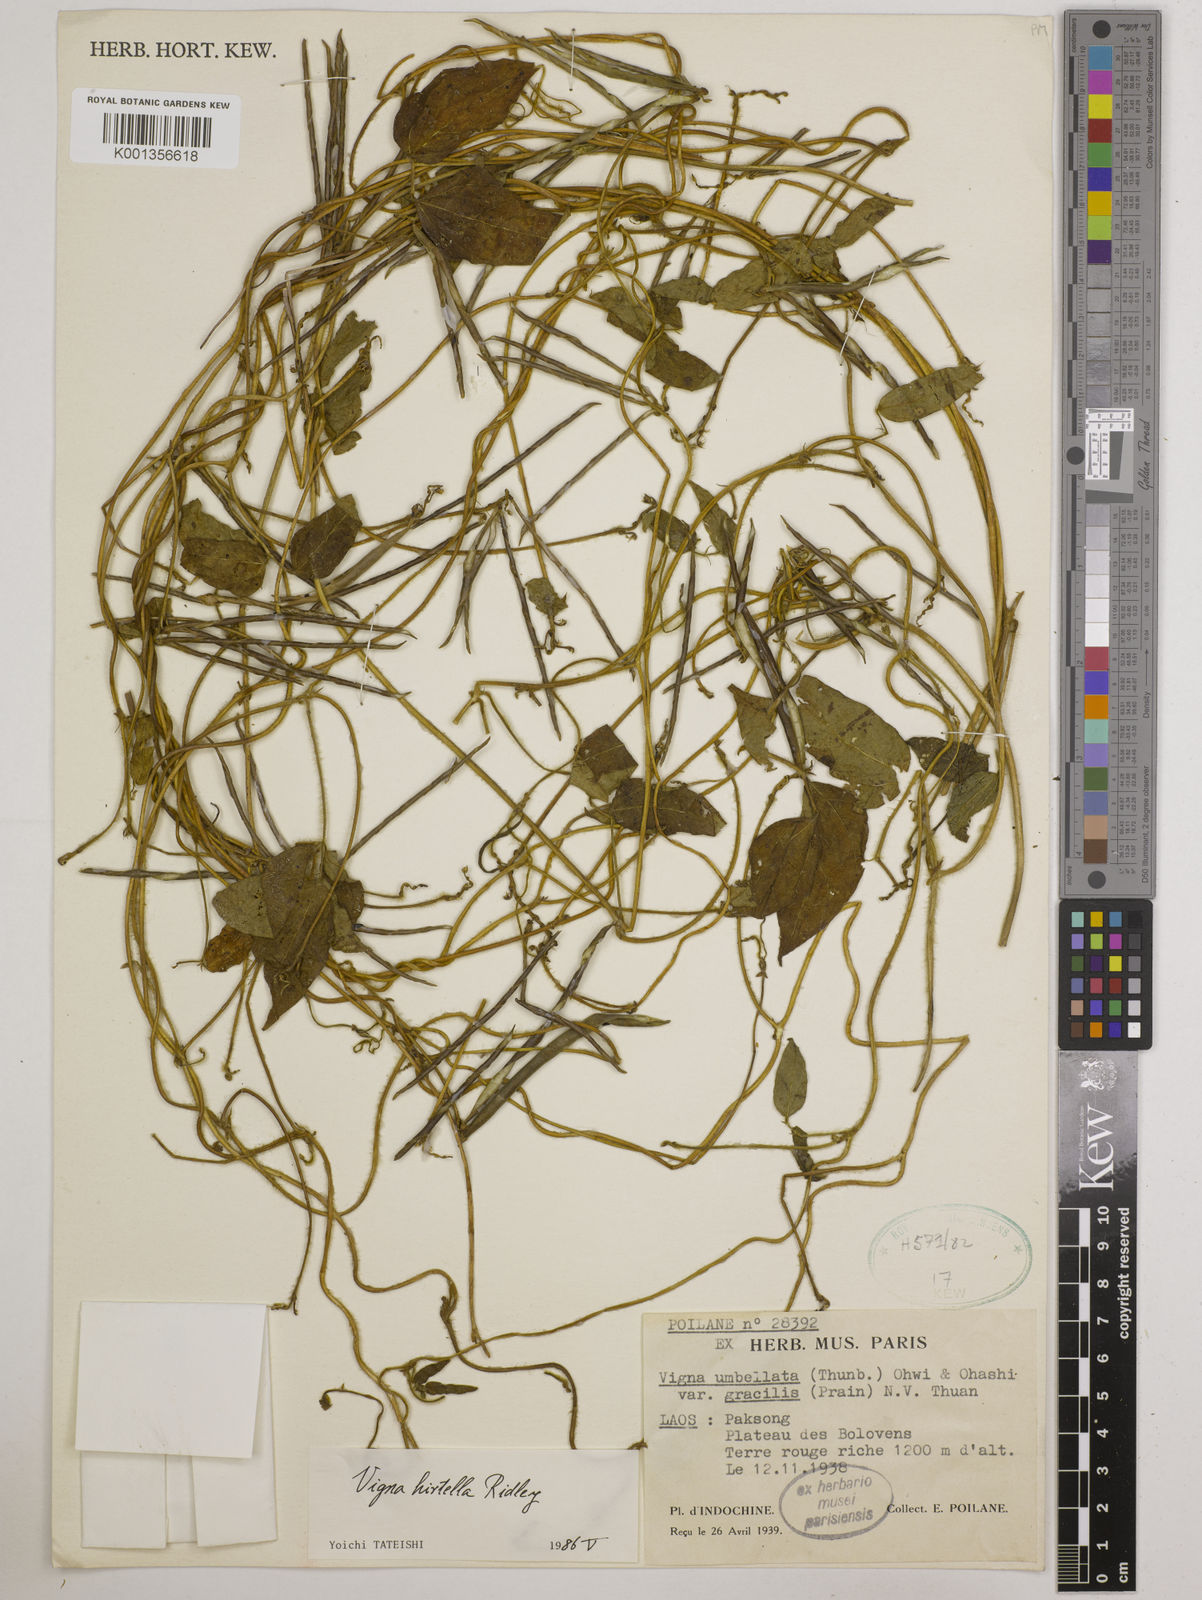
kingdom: Plantae
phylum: Tracheophyta
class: Magnoliopsida
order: Fabales
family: Fabaceae
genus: Vigna
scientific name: Vigna hirtella
